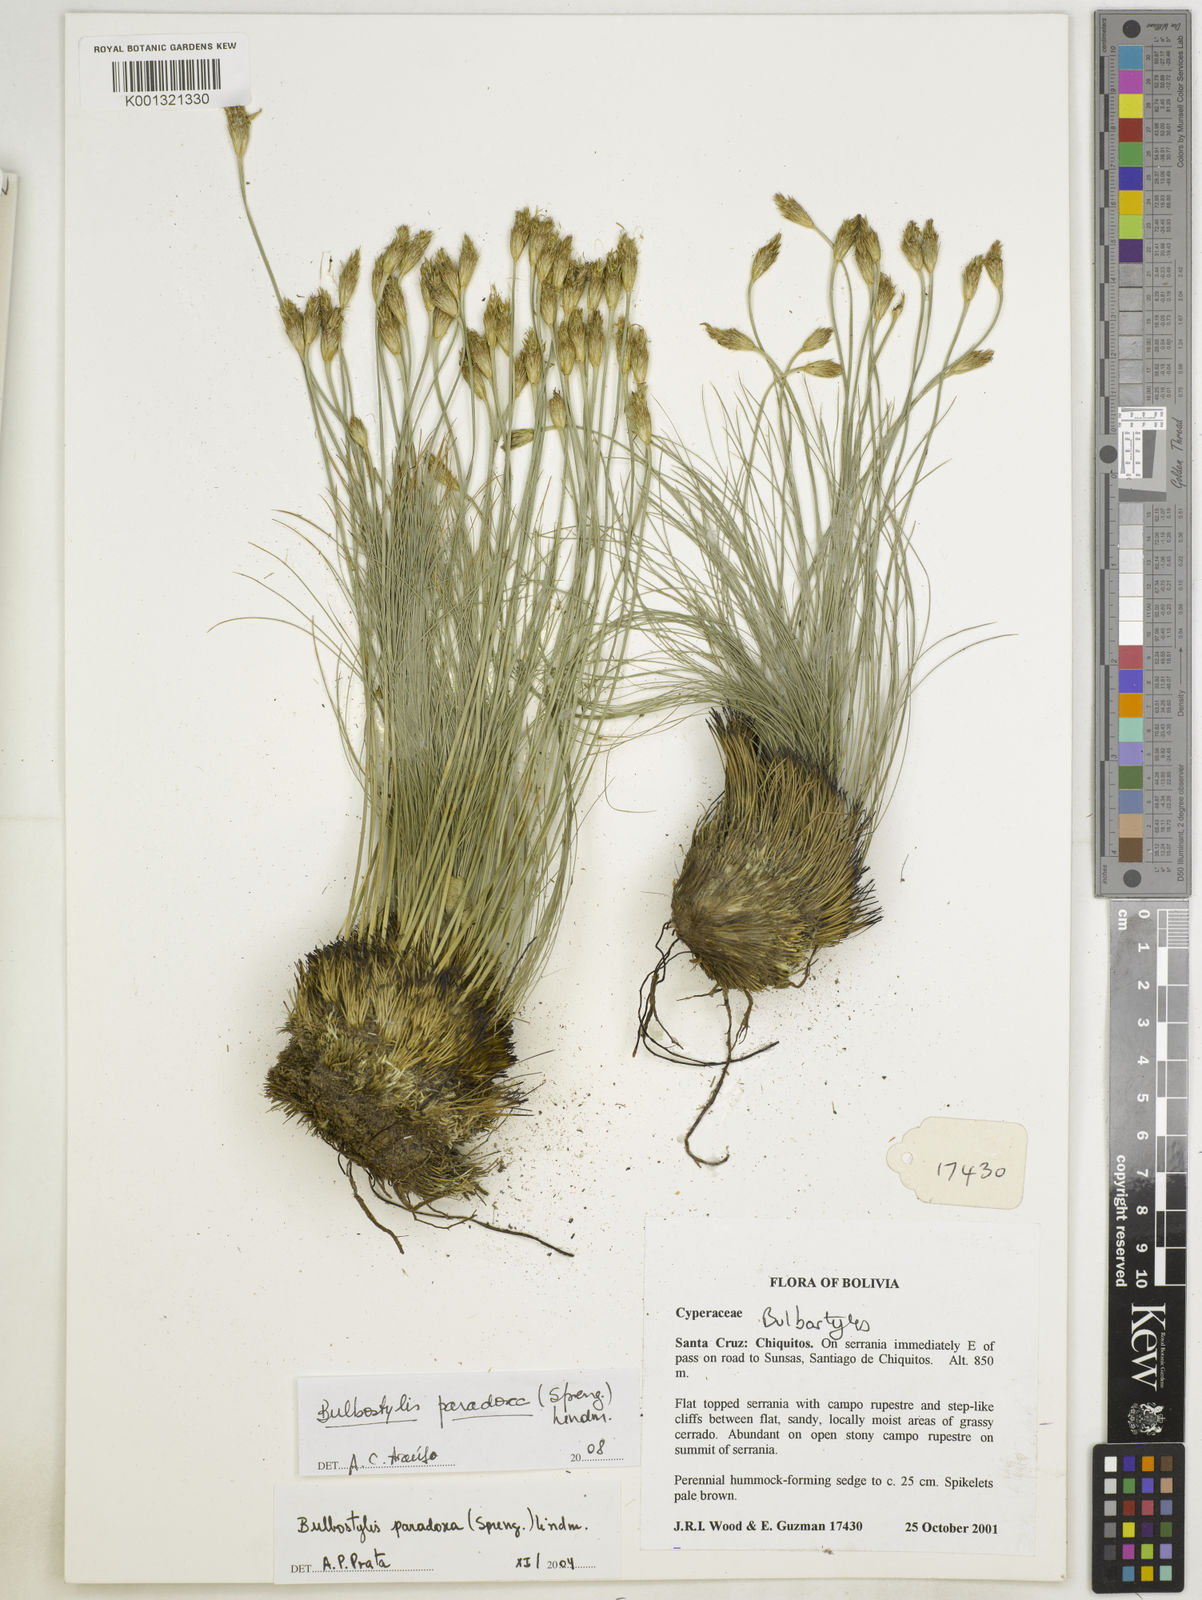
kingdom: Plantae
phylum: Tracheophyta
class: Liliopsida
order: Poales
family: Cyperaceae
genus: Bulbostylis
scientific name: Bulbostylis paradoxa
